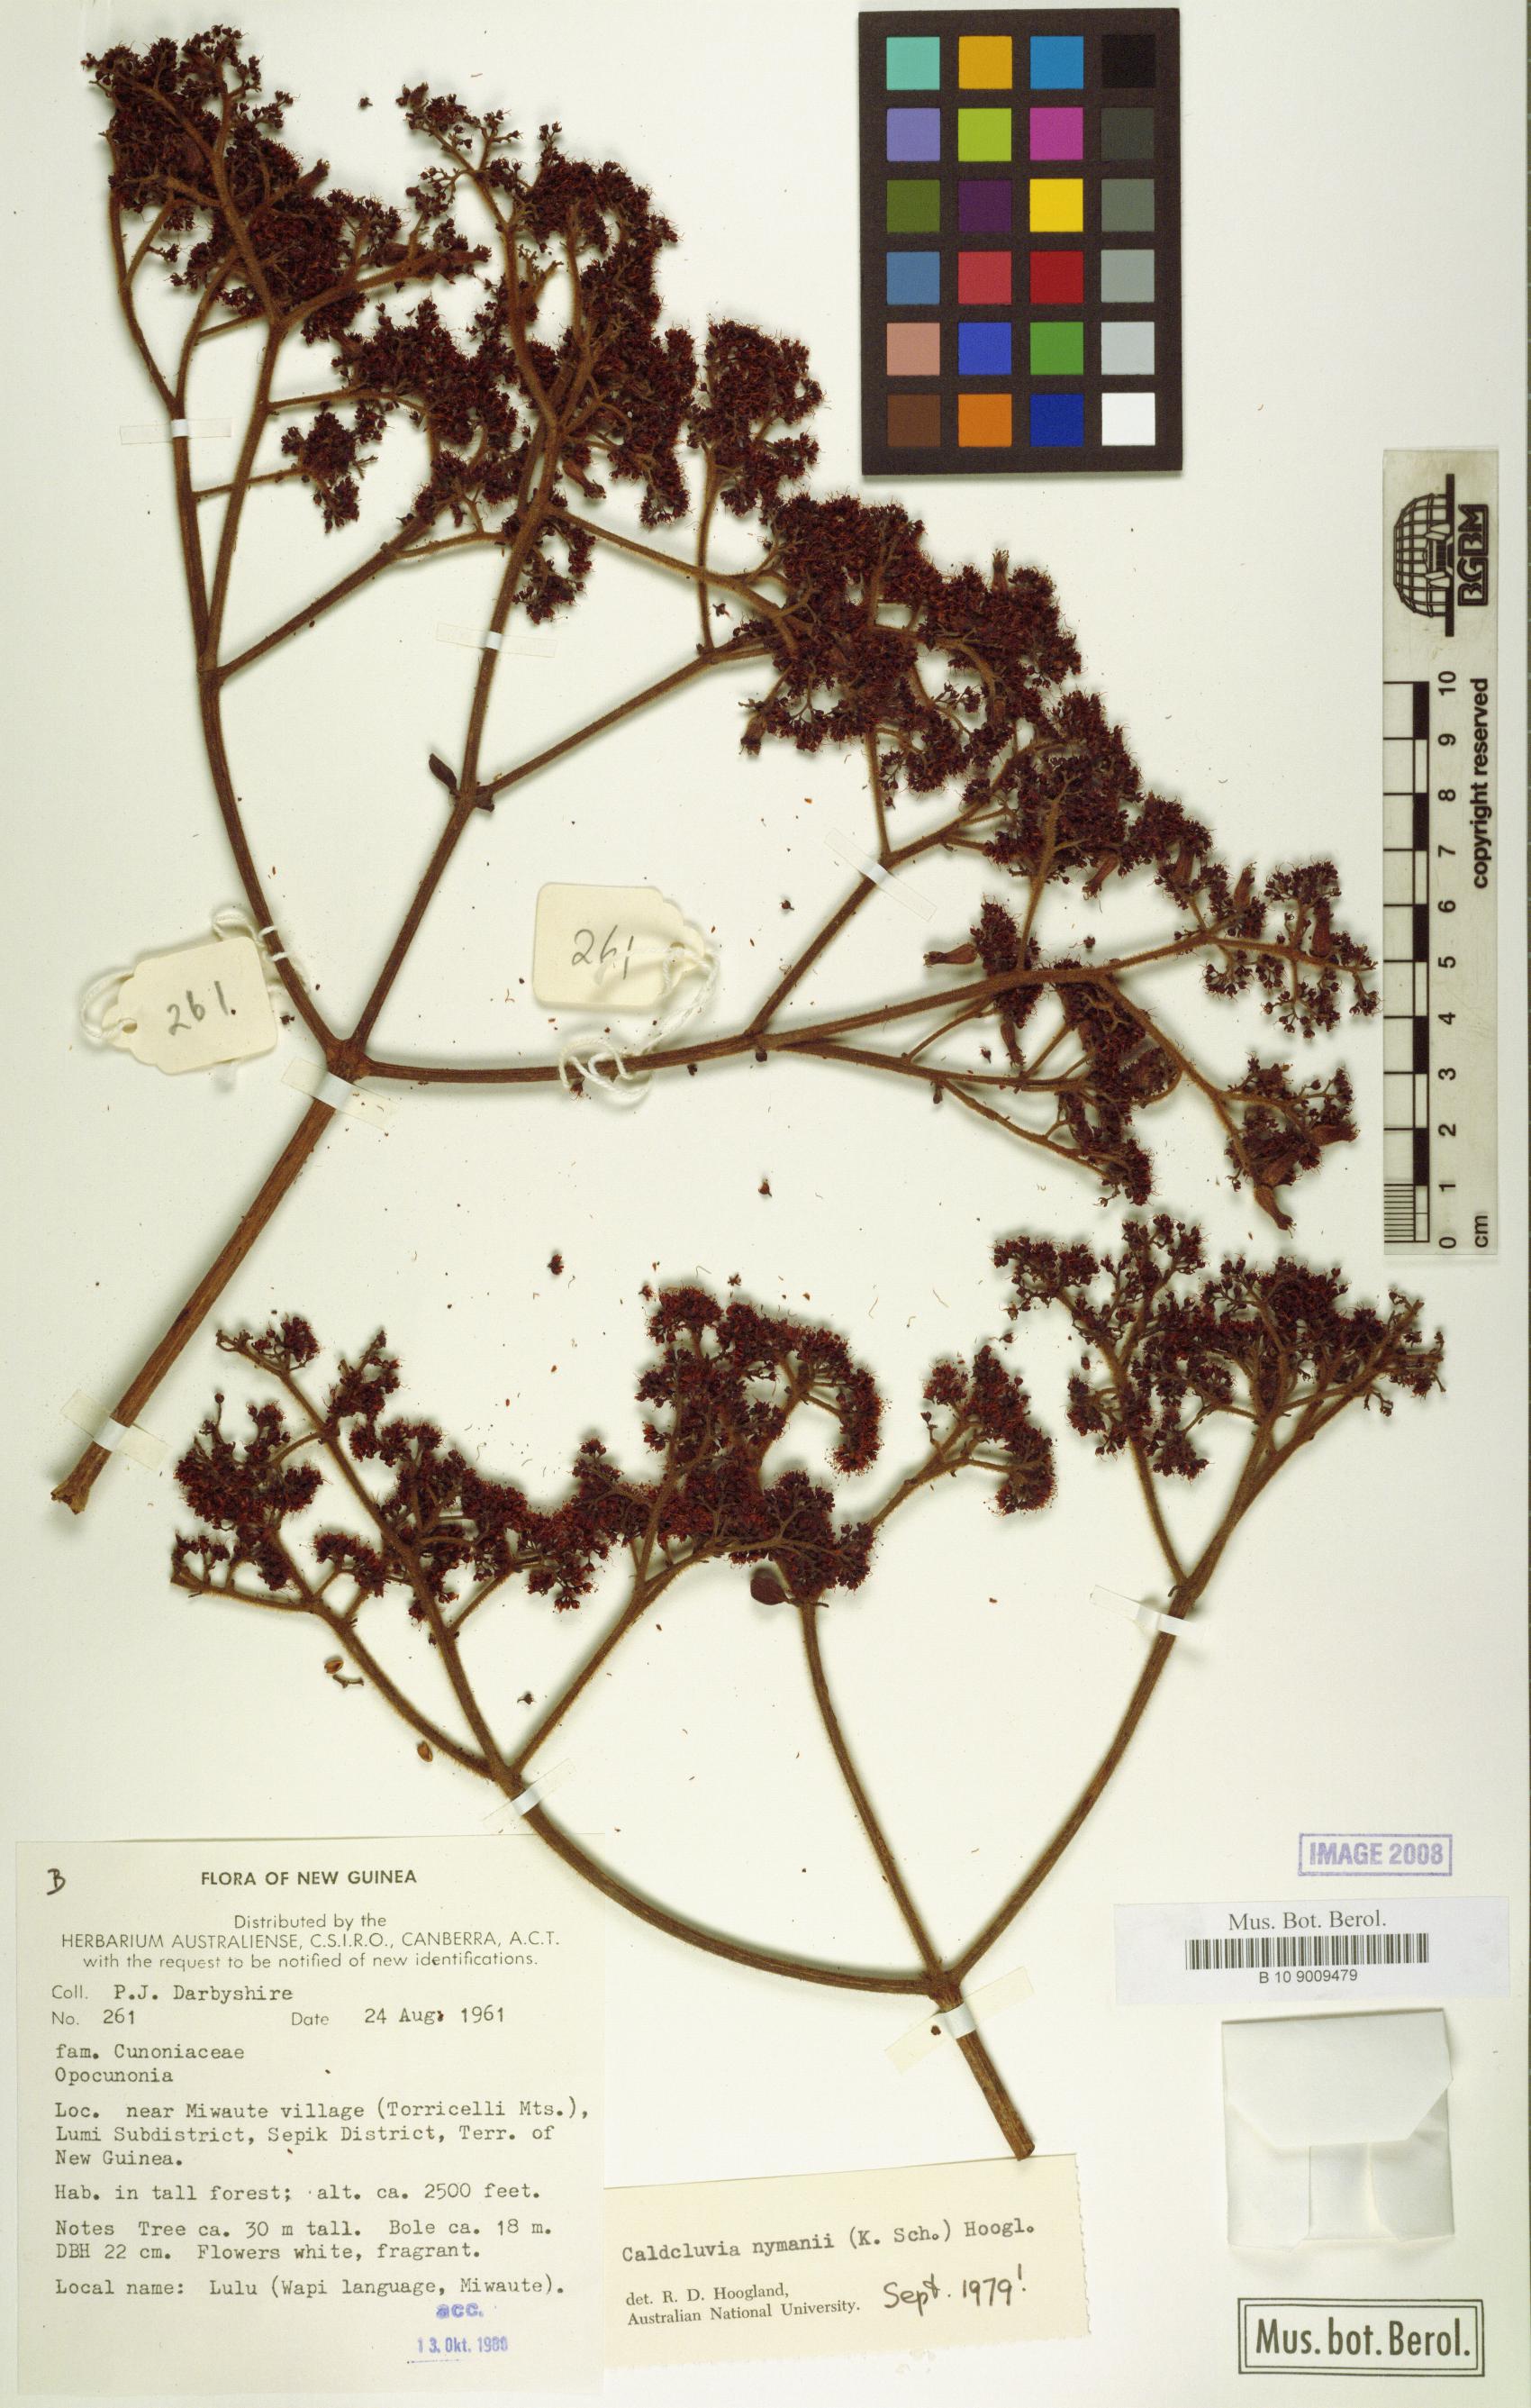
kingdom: Plantae
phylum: Tracheophyta
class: Magnoliopsida
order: Oxalidales
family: Cunoniaceae
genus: Opocunonia
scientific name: Opocunonia nymanii
